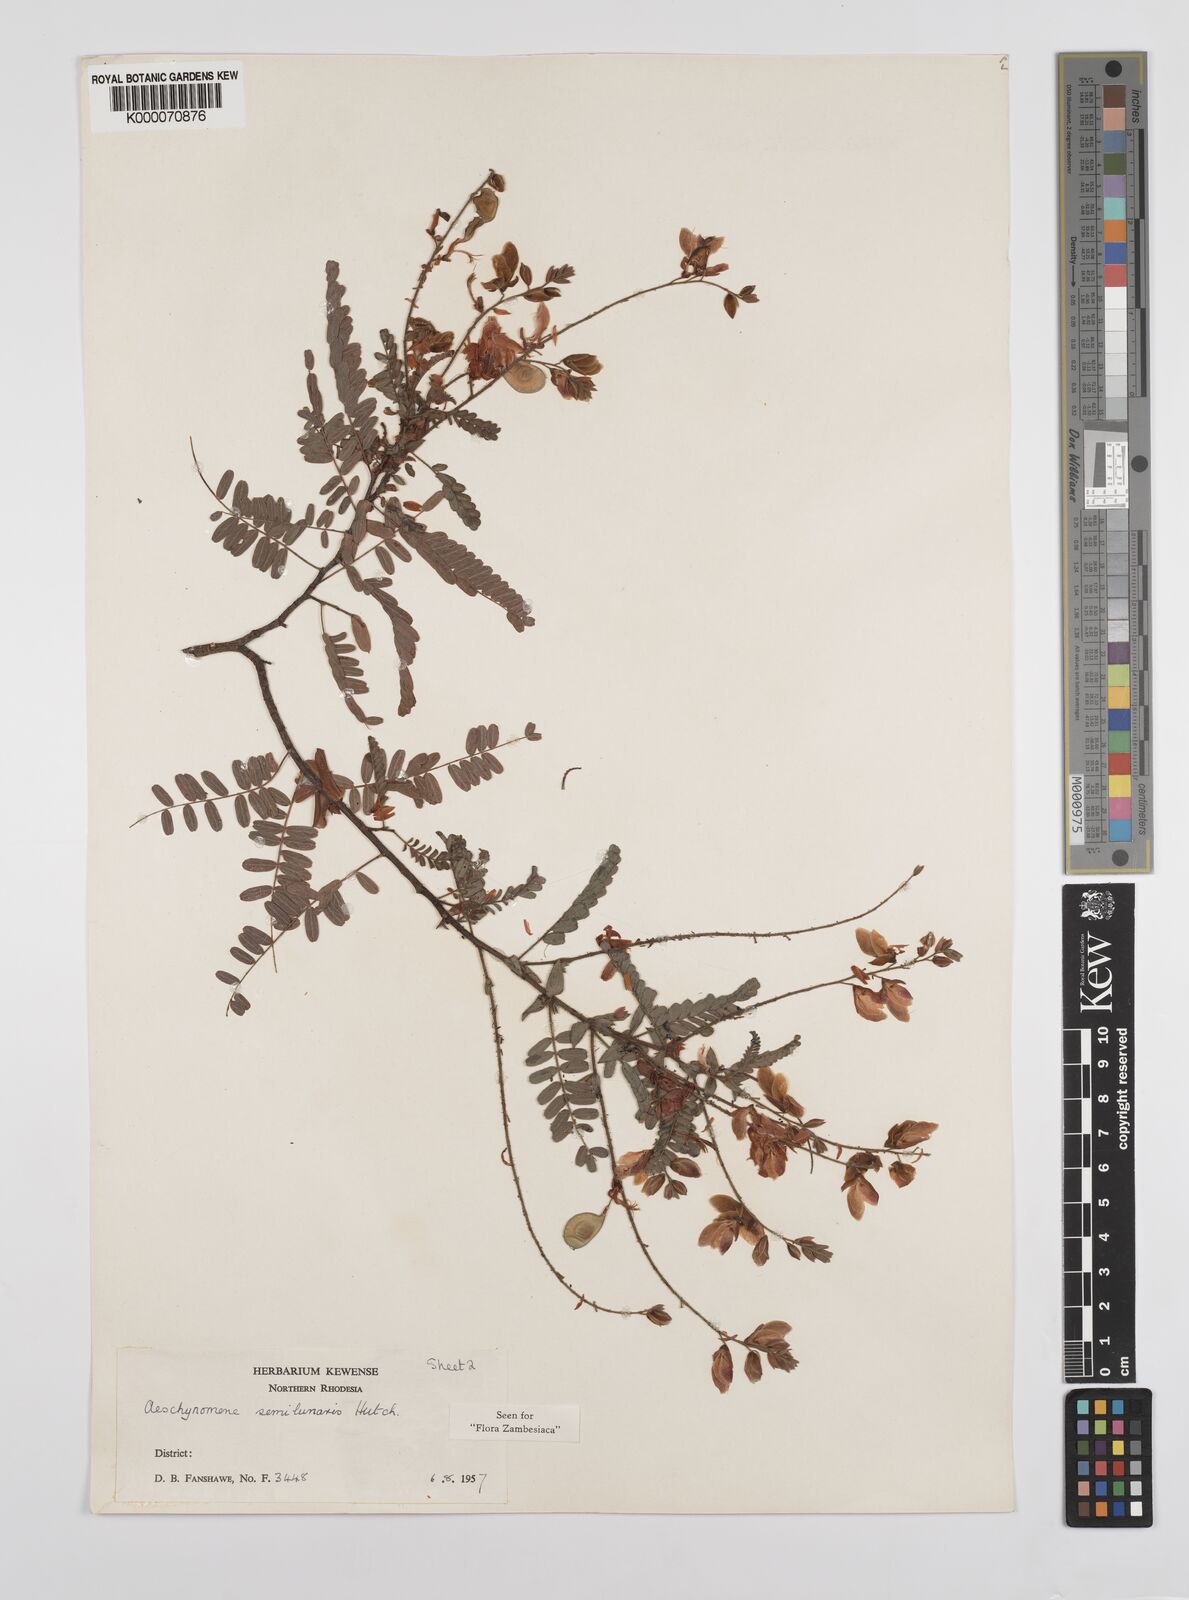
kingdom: Plantae
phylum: Tracheophyta
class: Magnoliopsida
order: Fabales
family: Fabaceae
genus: Aeschynomene
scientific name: Aeschynomene semilunaris
